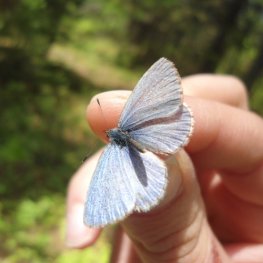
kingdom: Animalia
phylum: Arthropoda
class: Insecta
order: Lepidoptera
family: Lycaenidae
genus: Celastrina
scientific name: Celastrina lucia
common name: Northern Spring Azure
